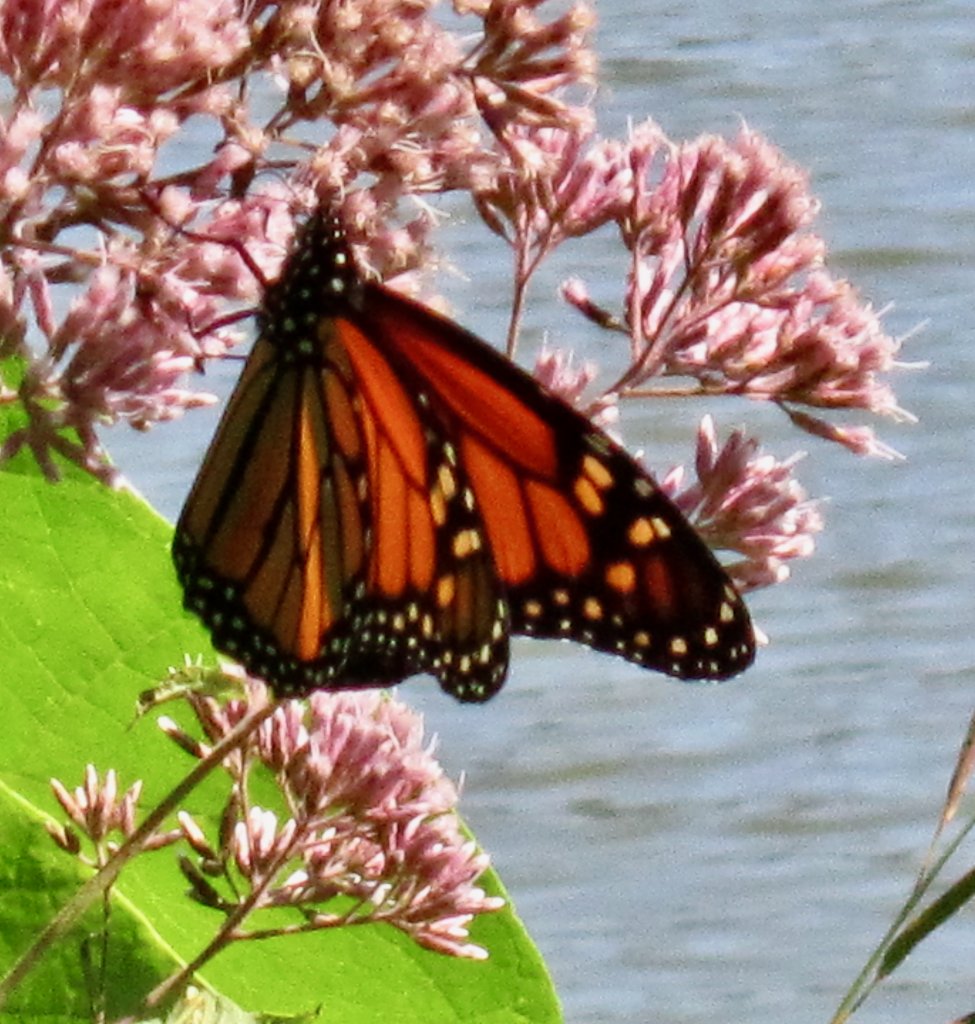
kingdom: Animalia
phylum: Arthropoda
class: Insecta
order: Lepidoptera
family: Nymphalidae
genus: Danaus
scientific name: Danaus plexippus
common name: Monarch
